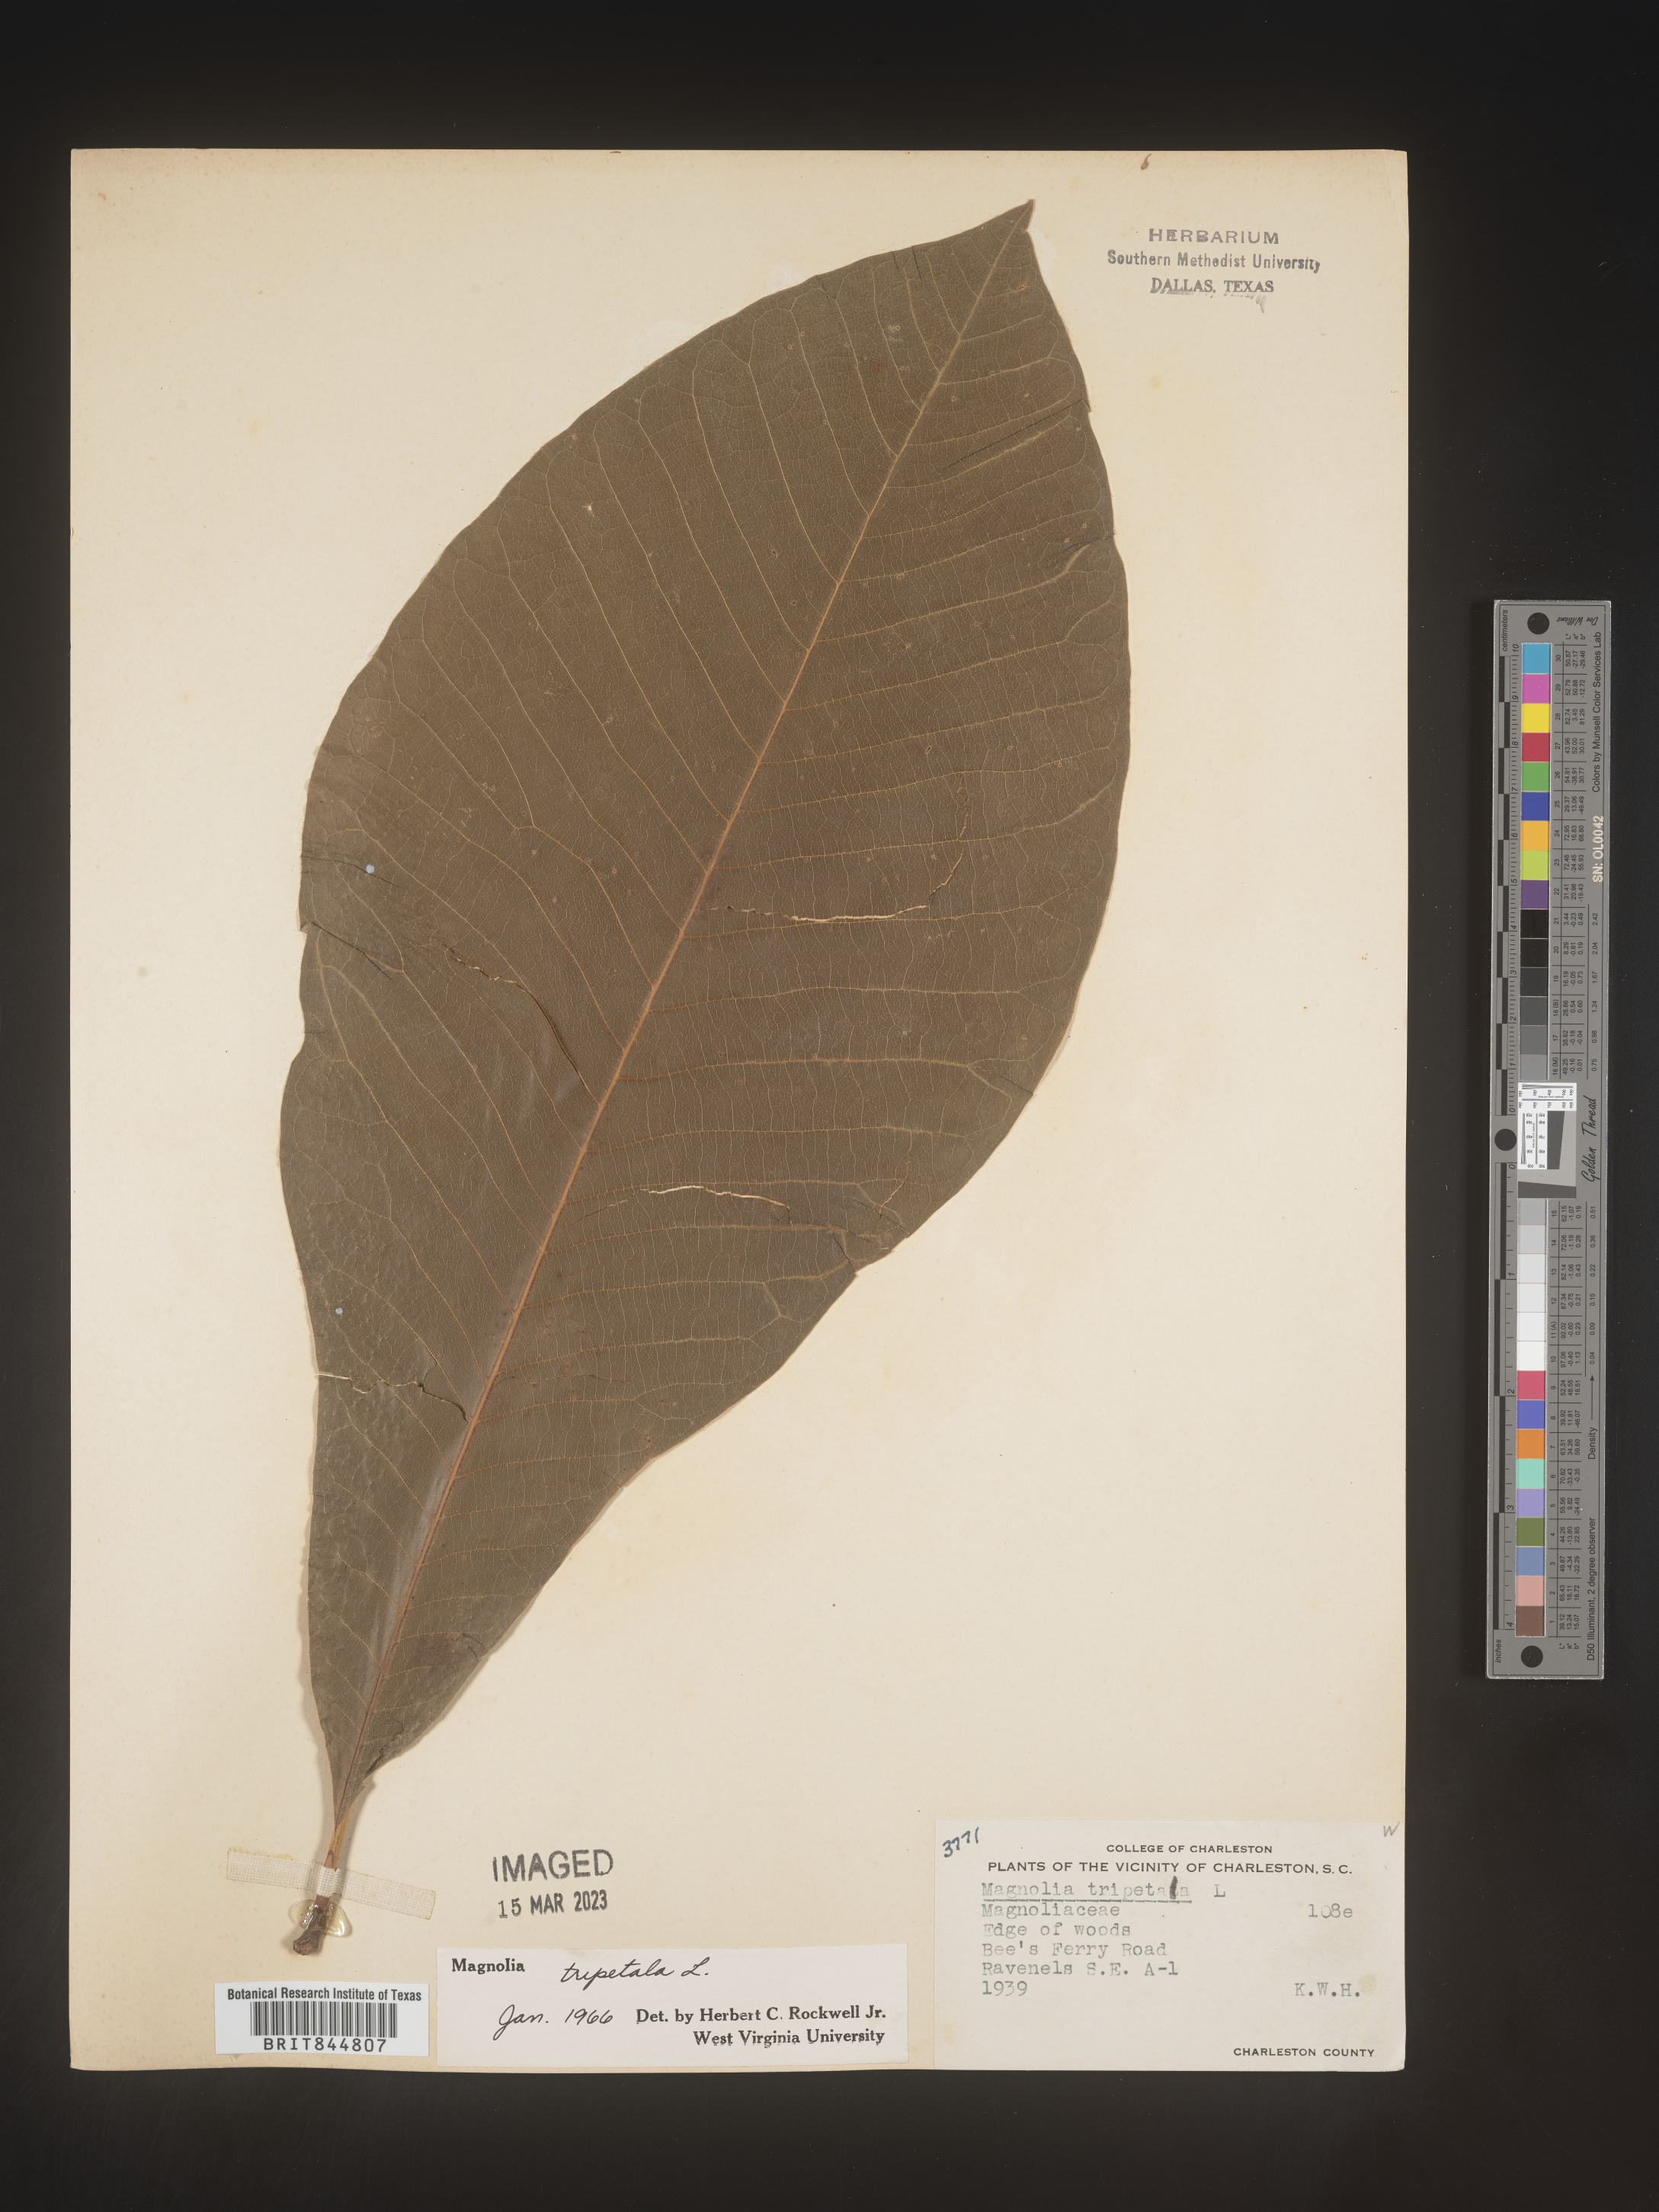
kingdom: Plantae
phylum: Tracheophyta
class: Magnoliopsida
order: Magnoliales
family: Magnoliaceae
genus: Magnolia
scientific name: Magnolia tripetala
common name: Umbrella magnolia
